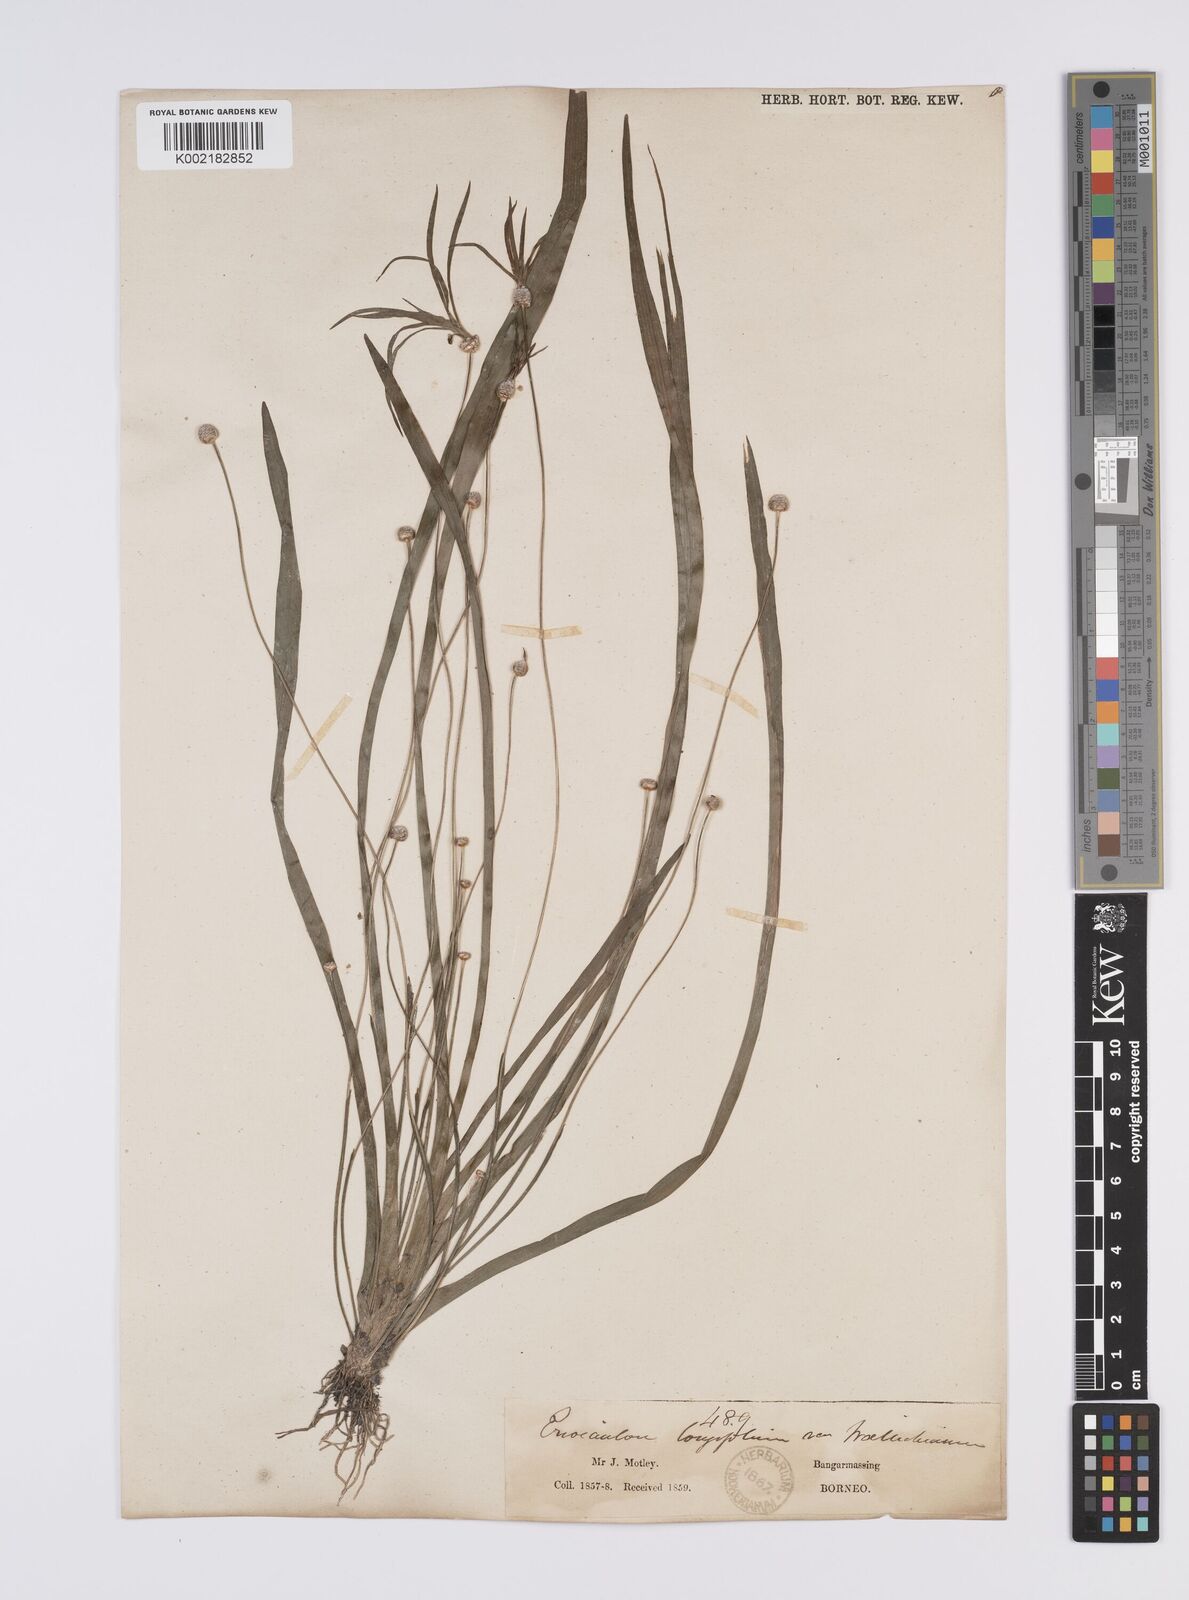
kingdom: Plantae
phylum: Tracheophyta
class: Liliopsida
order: Poales
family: Eriocaulaceae
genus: Eriocaulon
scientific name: Eriocaulon willdenovianum
